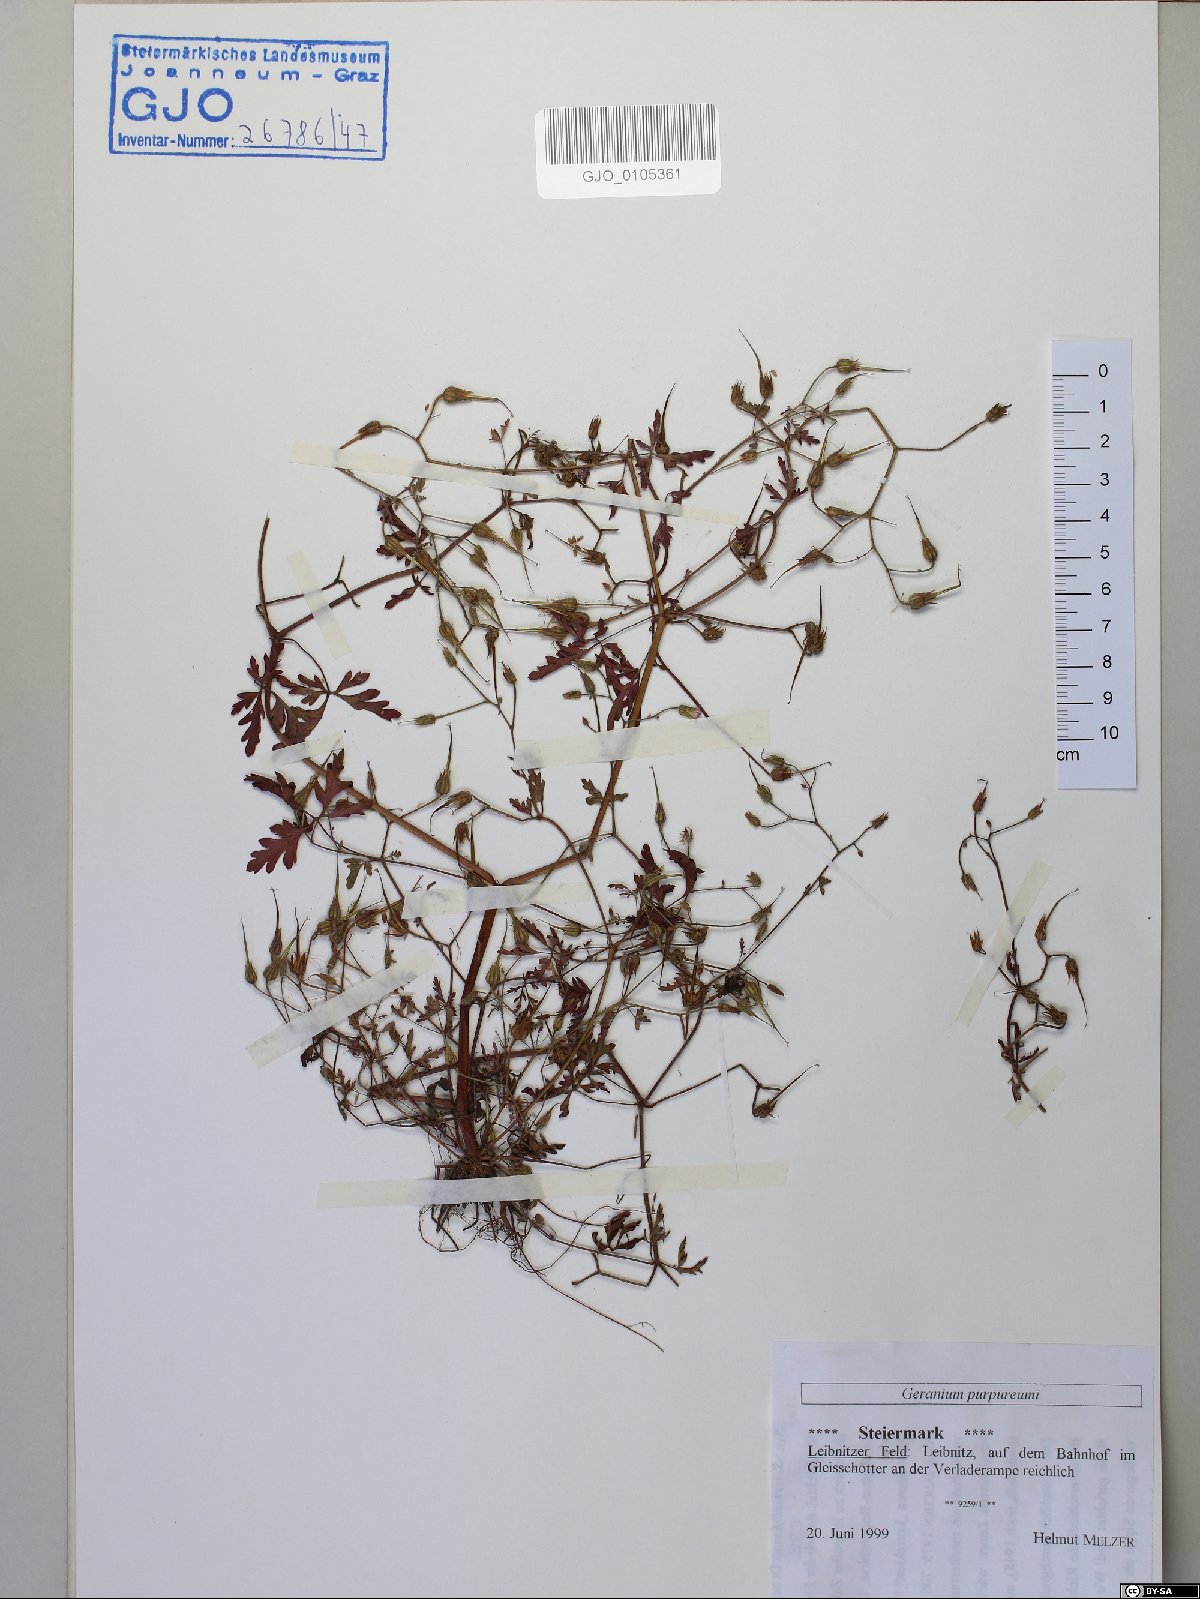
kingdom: Plantae
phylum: Tracheophyta
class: Magnoliopsida
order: Geraniales
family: Geraniaceae
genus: Geranium
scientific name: Geranium purpureum
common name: Little-robin
